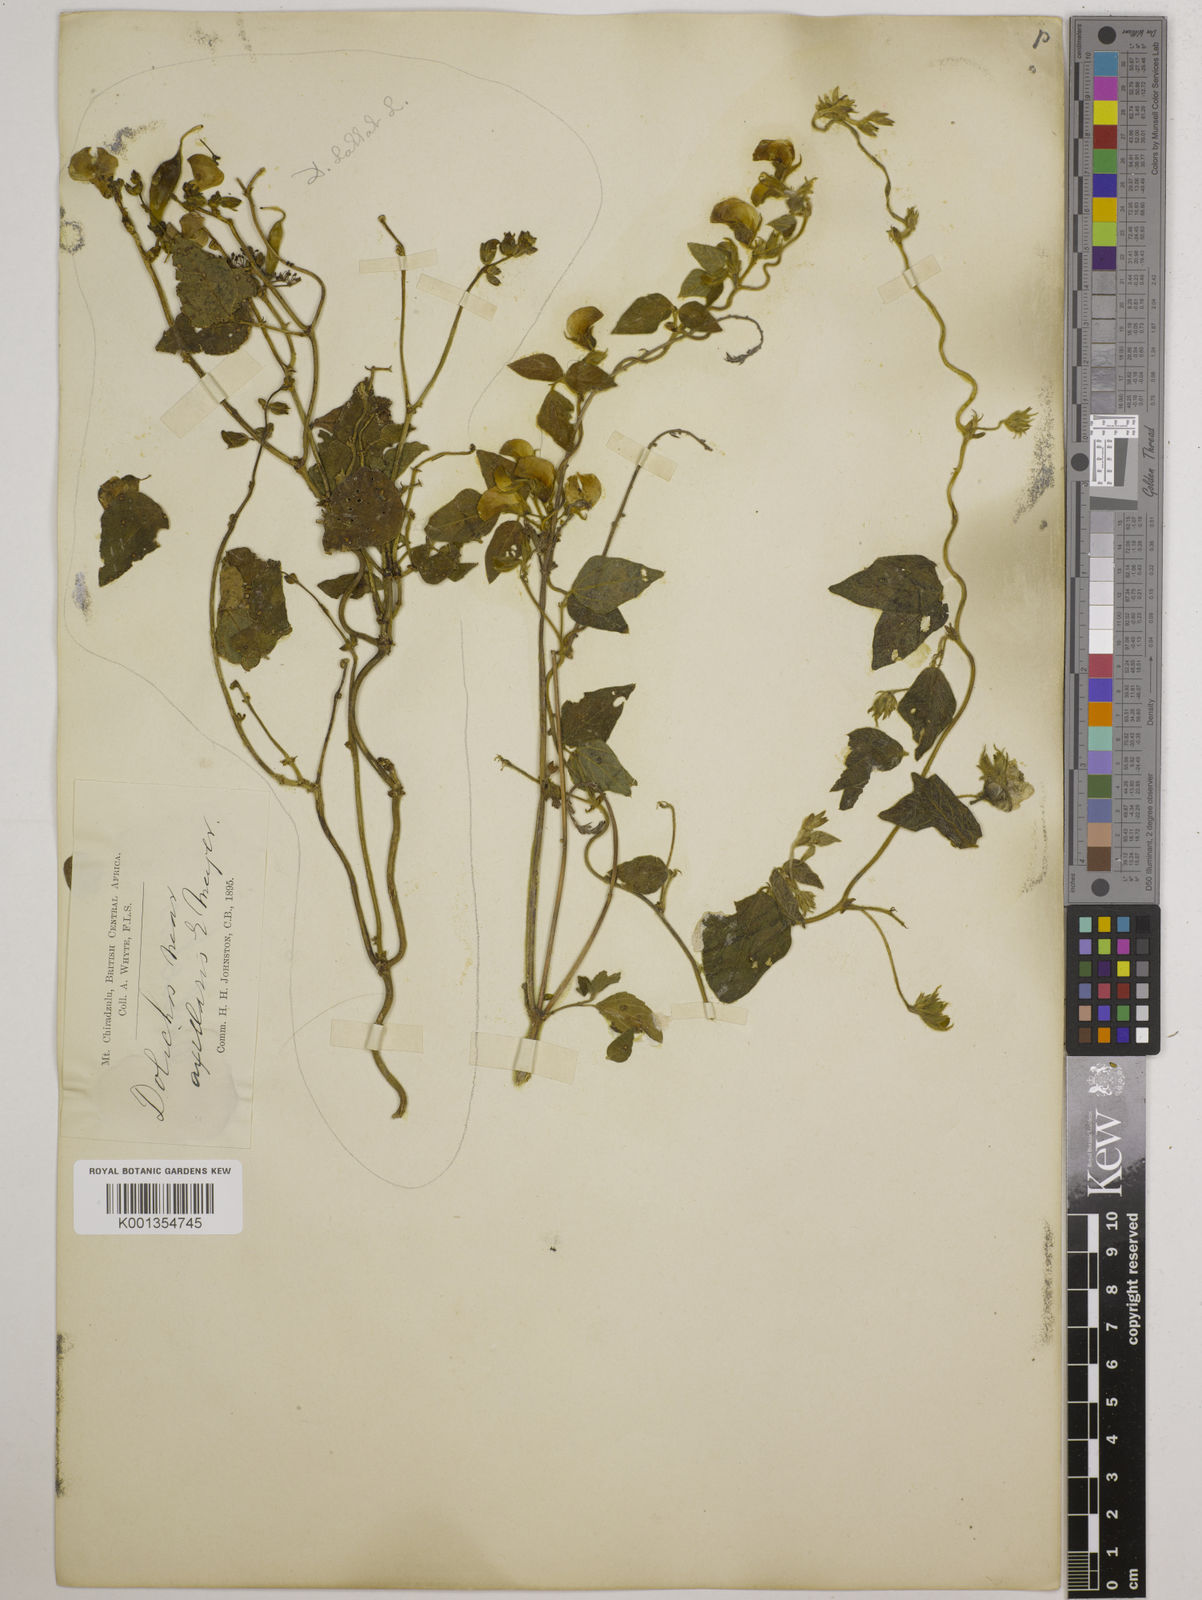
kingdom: Plantae
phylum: Tracheophyta
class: Magnoliopsida
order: Fabales
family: Fabaceae
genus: Dolichos
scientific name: Dolichos
